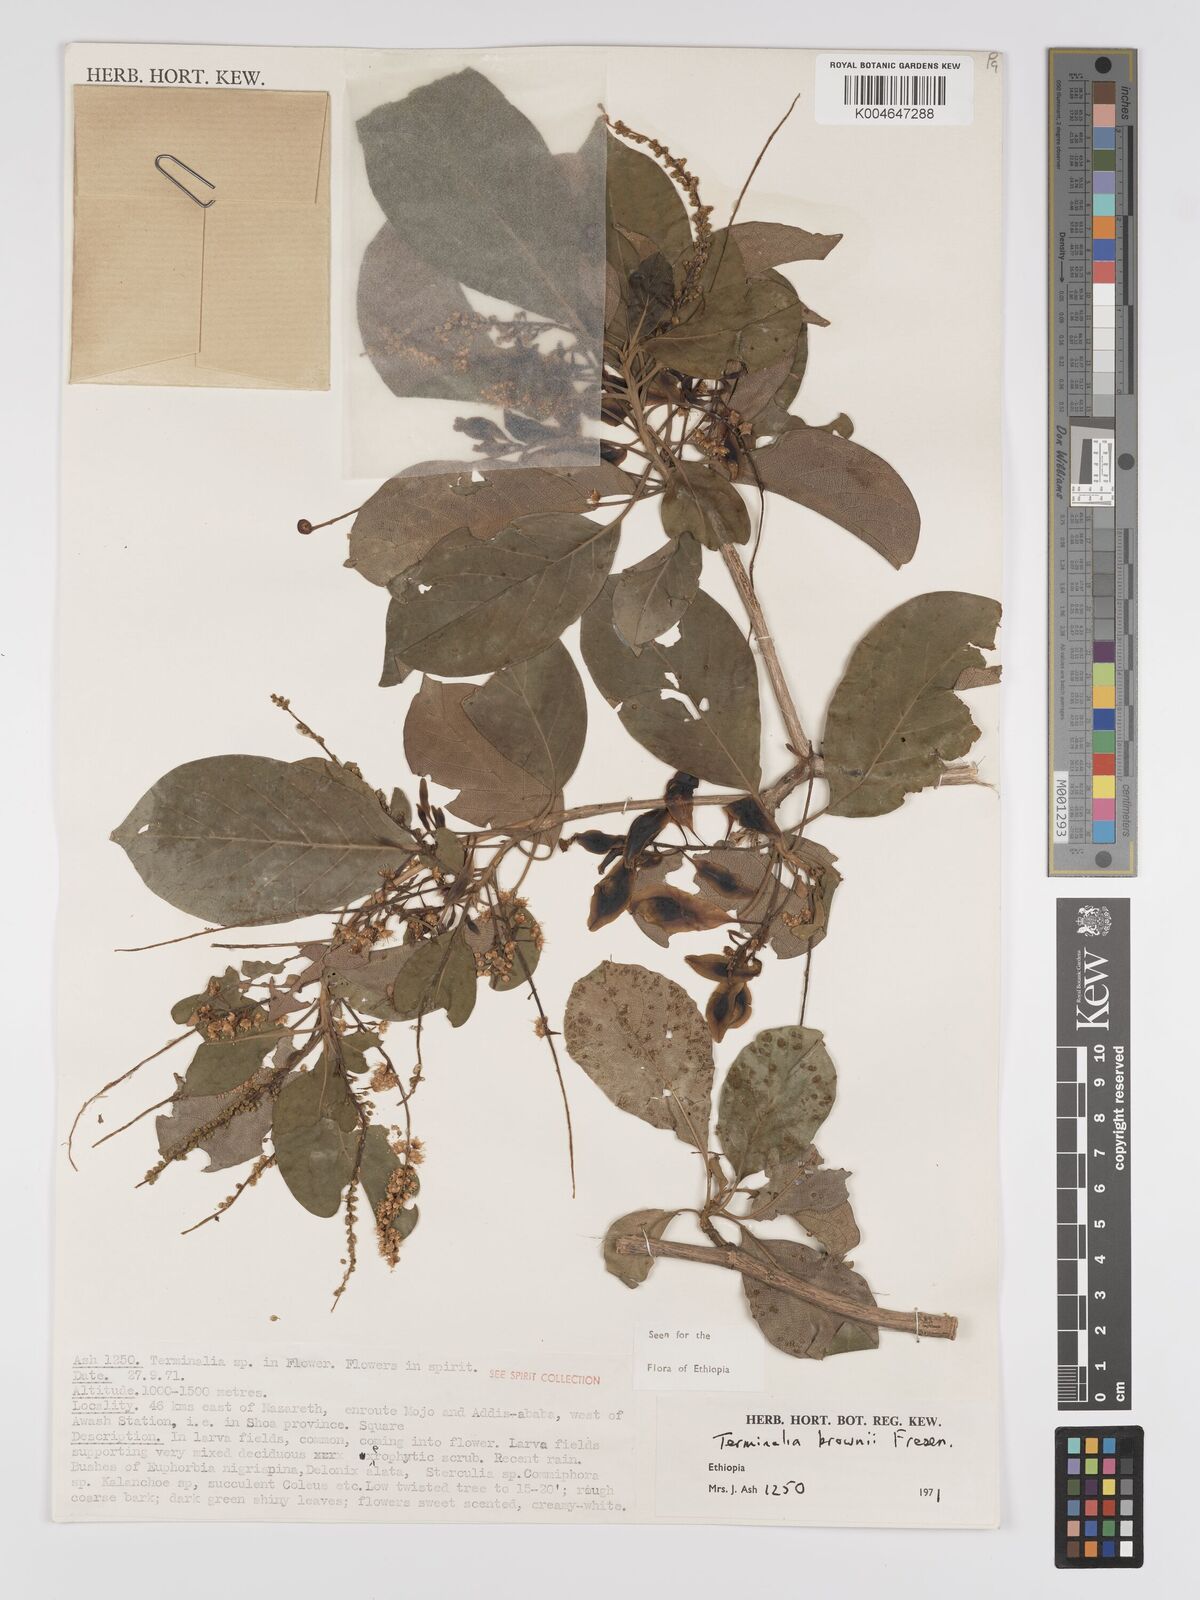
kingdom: Plantae
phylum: Tracheophyta
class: Magnoliopsida
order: Myrtales
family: Combretaceae
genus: Terminalia
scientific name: Terminalia brownii
